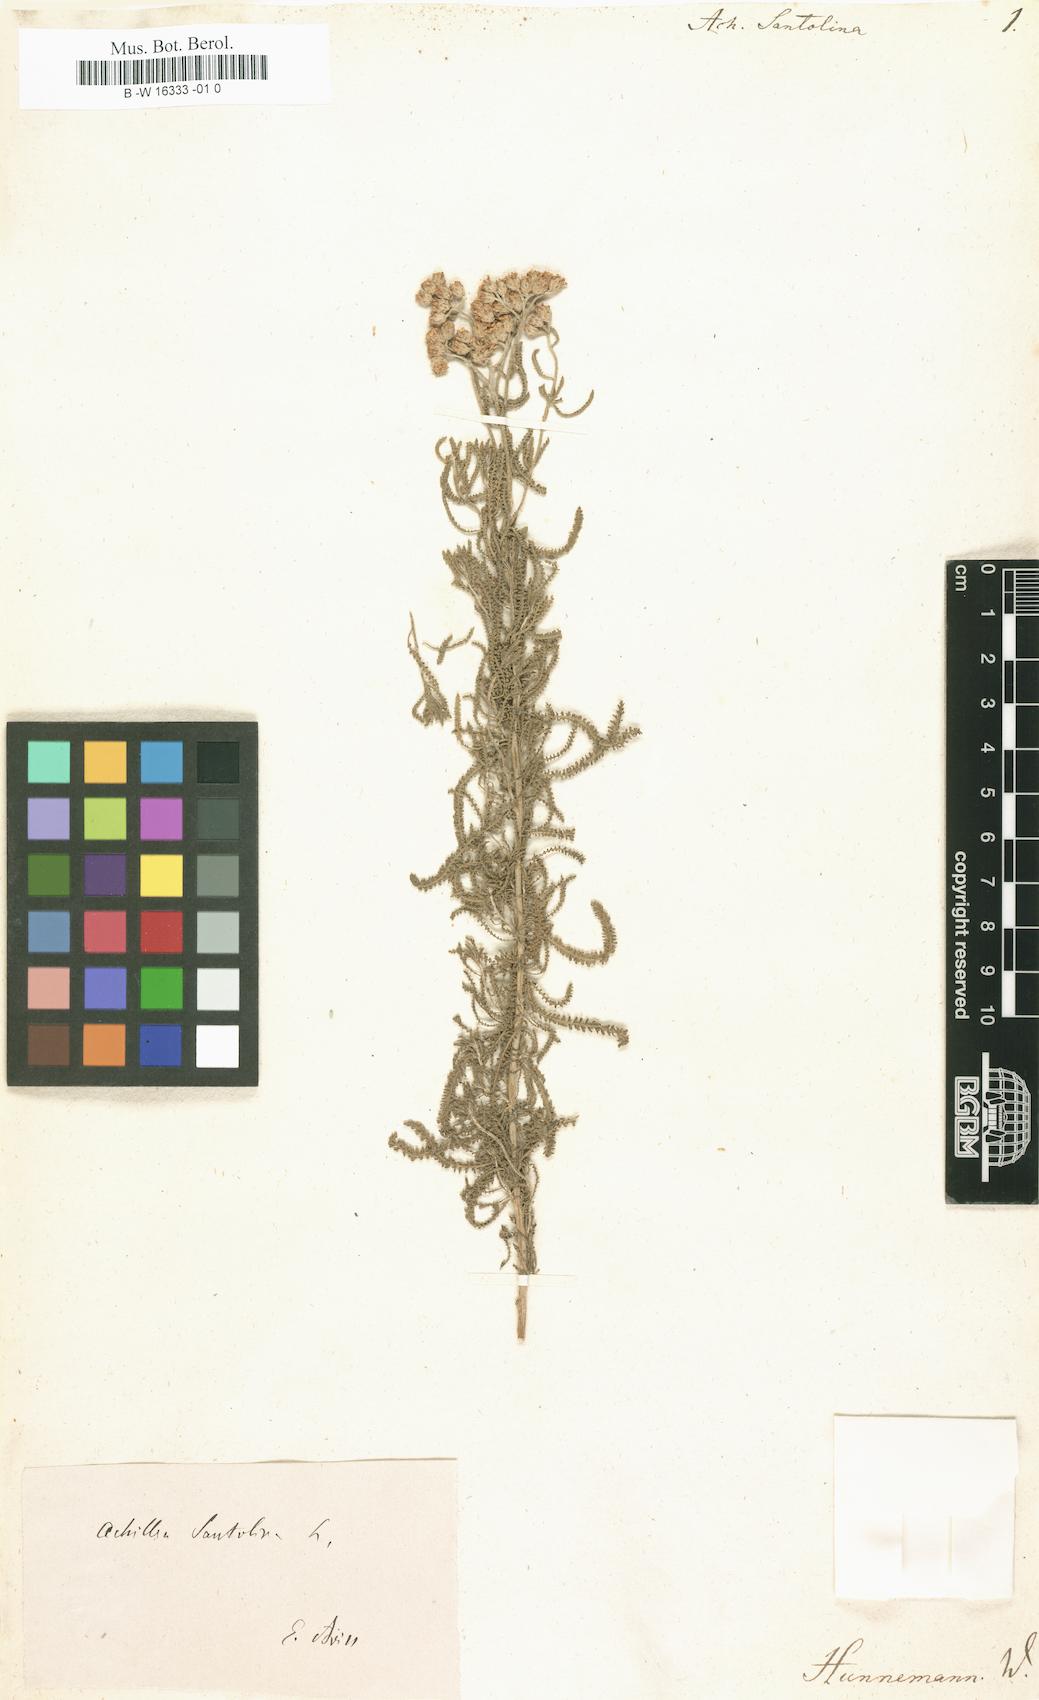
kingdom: Plantae
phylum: Tracheophyta
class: Magnoliopsida
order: Asterales
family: Asteraceae
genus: Achillea
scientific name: Achillea tenuifolia
